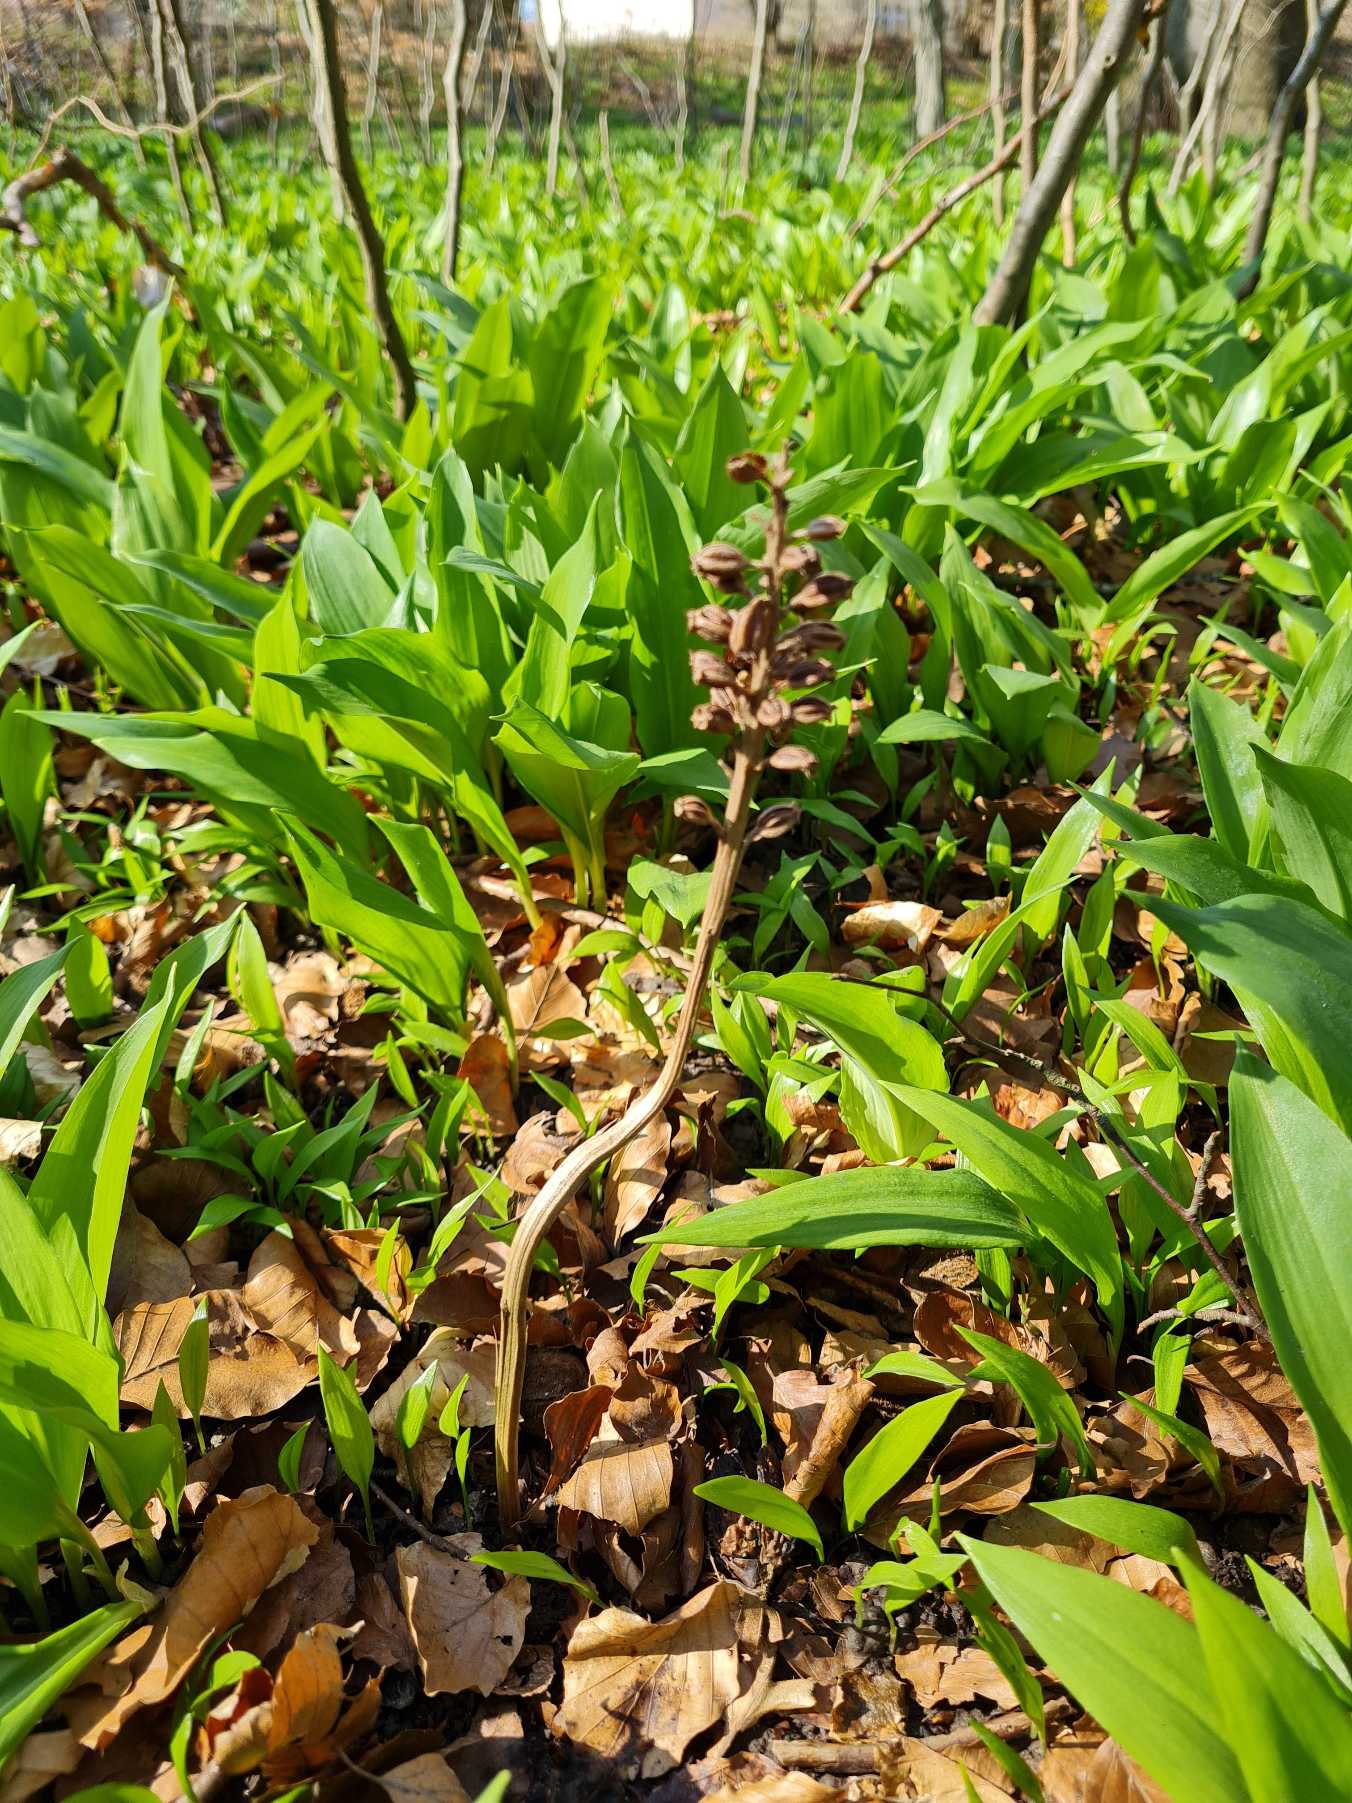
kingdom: Plantae
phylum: Tracheophyta
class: Liliopsida
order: Asparagales
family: Orchidaceae
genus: Neottia
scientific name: Neottia nidus-avis
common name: Rederod
